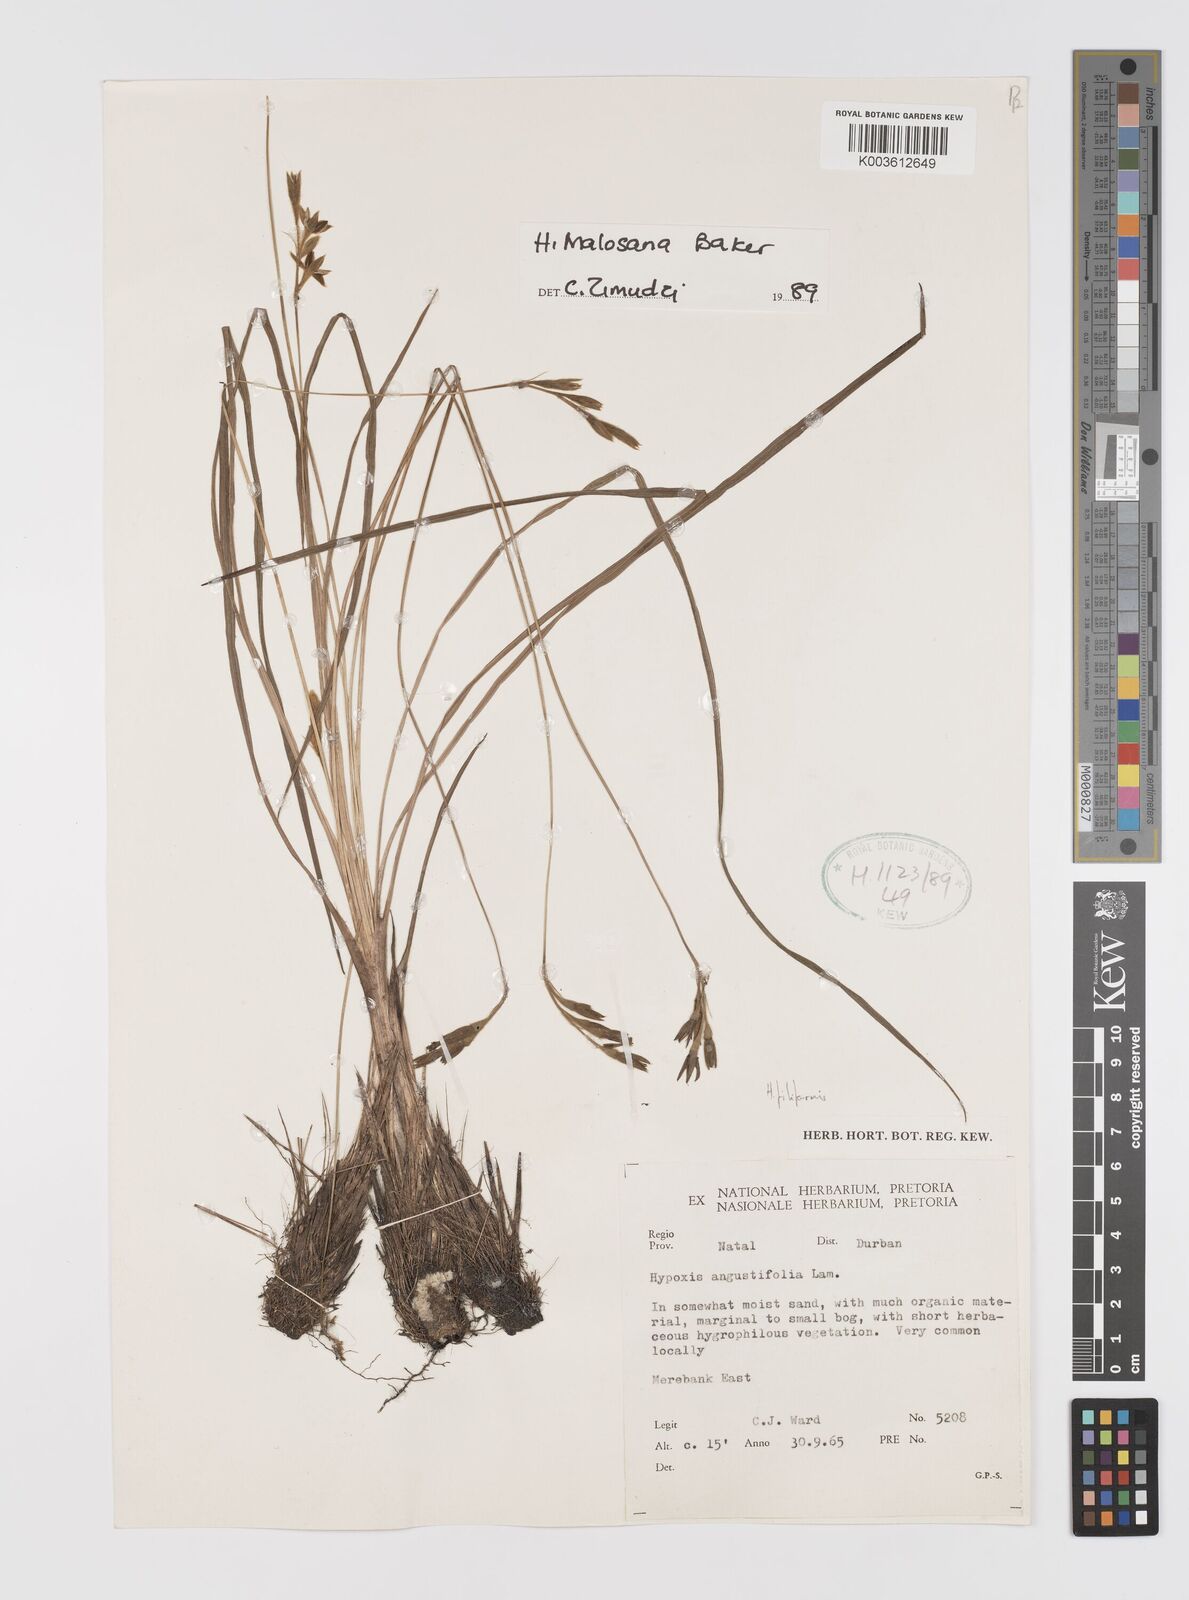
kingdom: Plantae
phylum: Tracheophyta
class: Liliopsida
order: Asparagales
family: Hypoxidaceae
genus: Hypoxis
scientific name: Hypoxis filiformis
